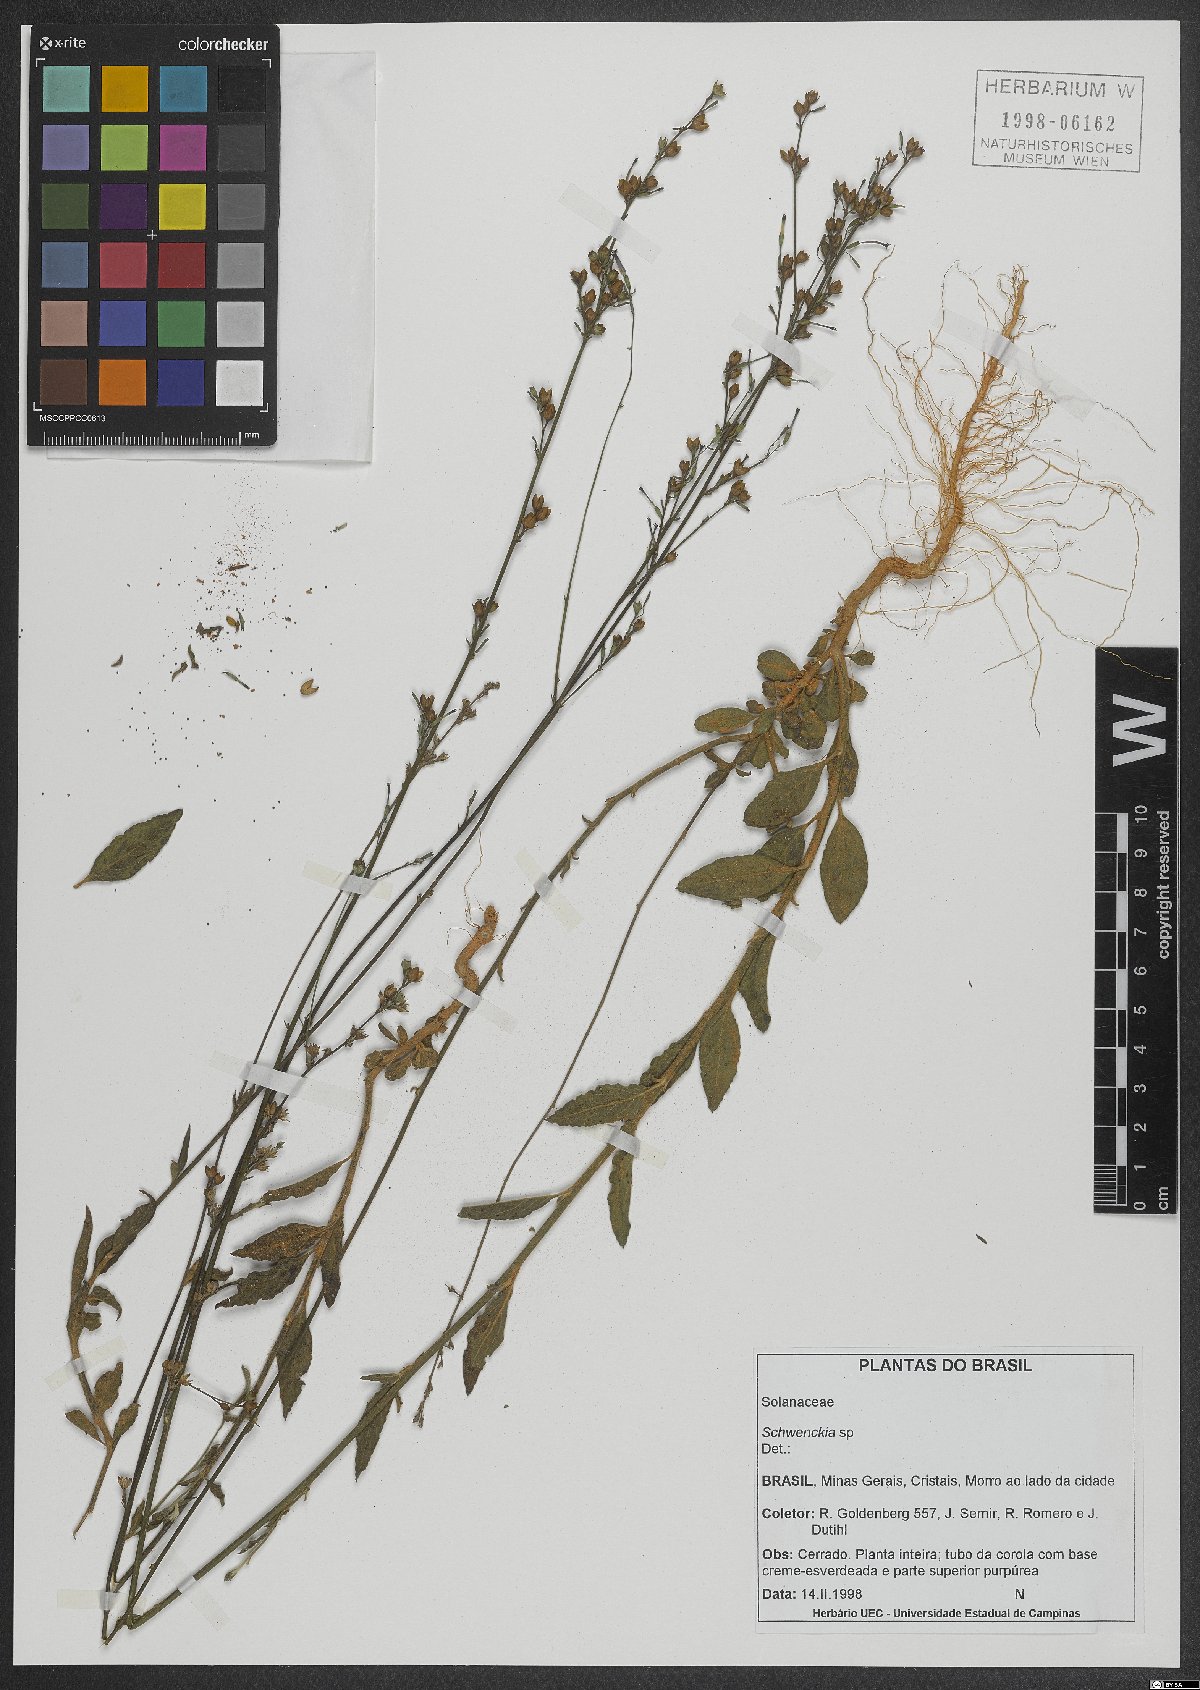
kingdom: Plantae
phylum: Tracheophyta
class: Magnoliopsida
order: Solanales
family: Solanaceae
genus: Schwenckia
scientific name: Schwenckia
